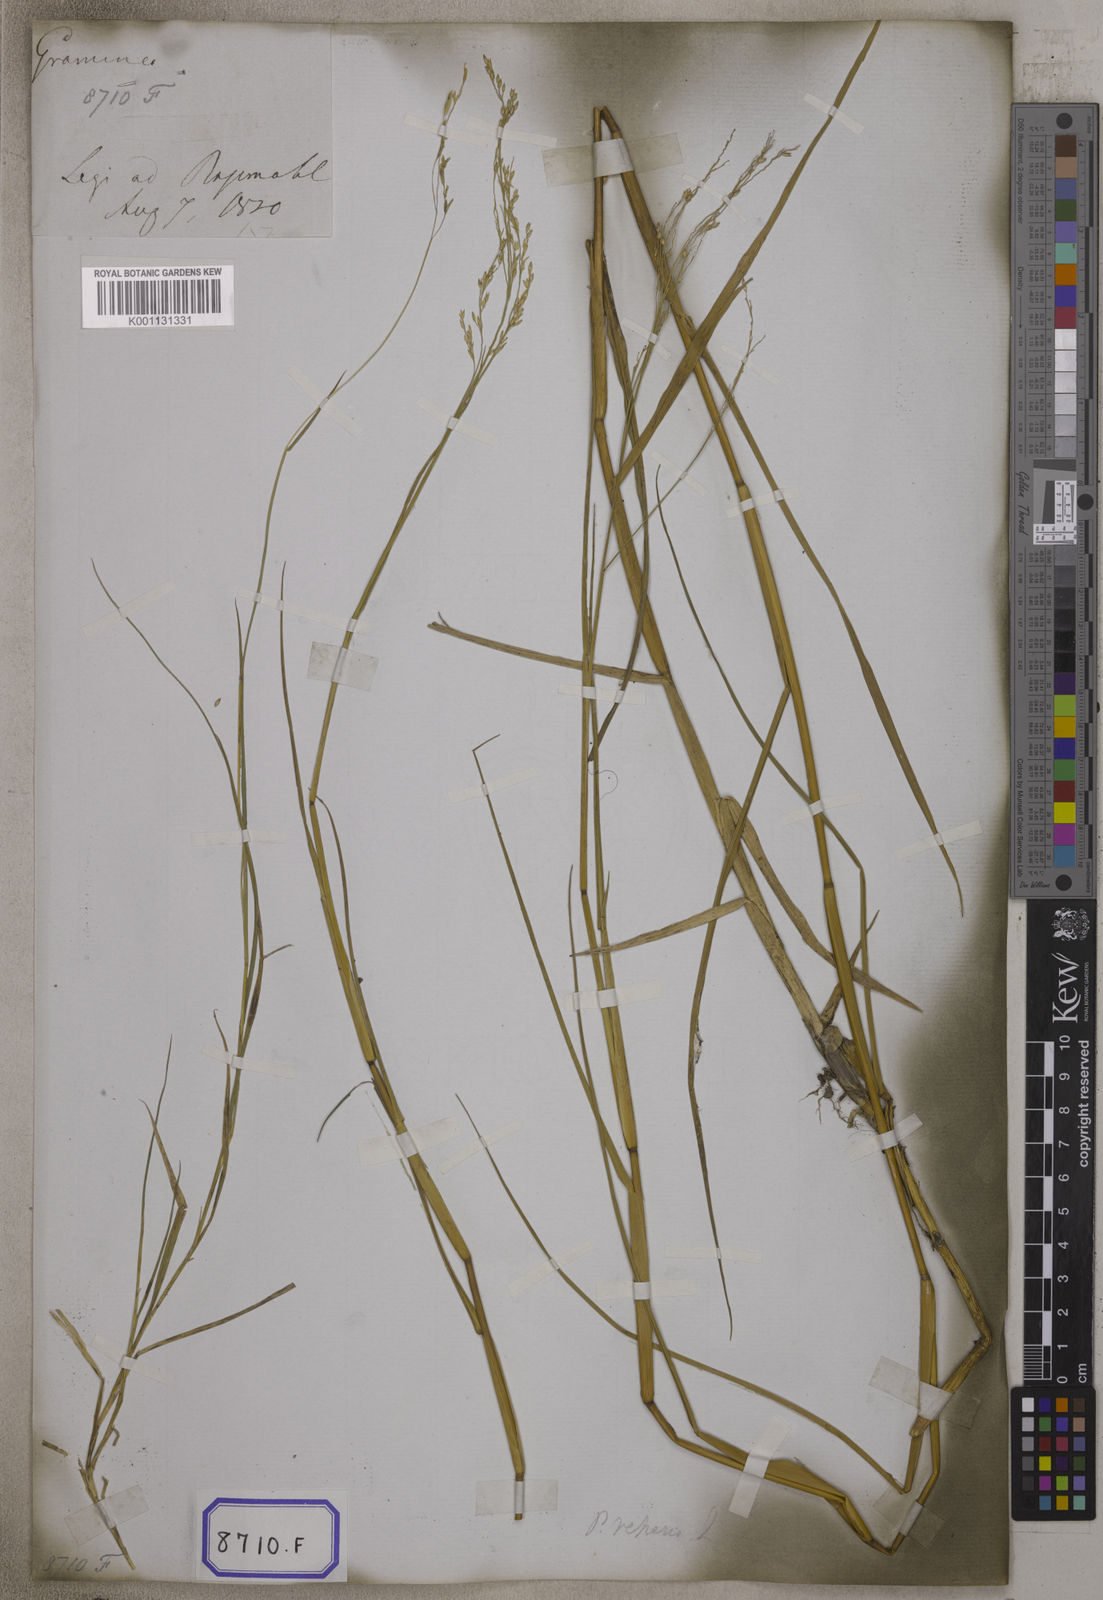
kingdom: Plantae
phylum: Tracheophyta
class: Liliopsida
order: Poales
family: Poaceae
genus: Panicum
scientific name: Panicum repens
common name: Torpedo grass
